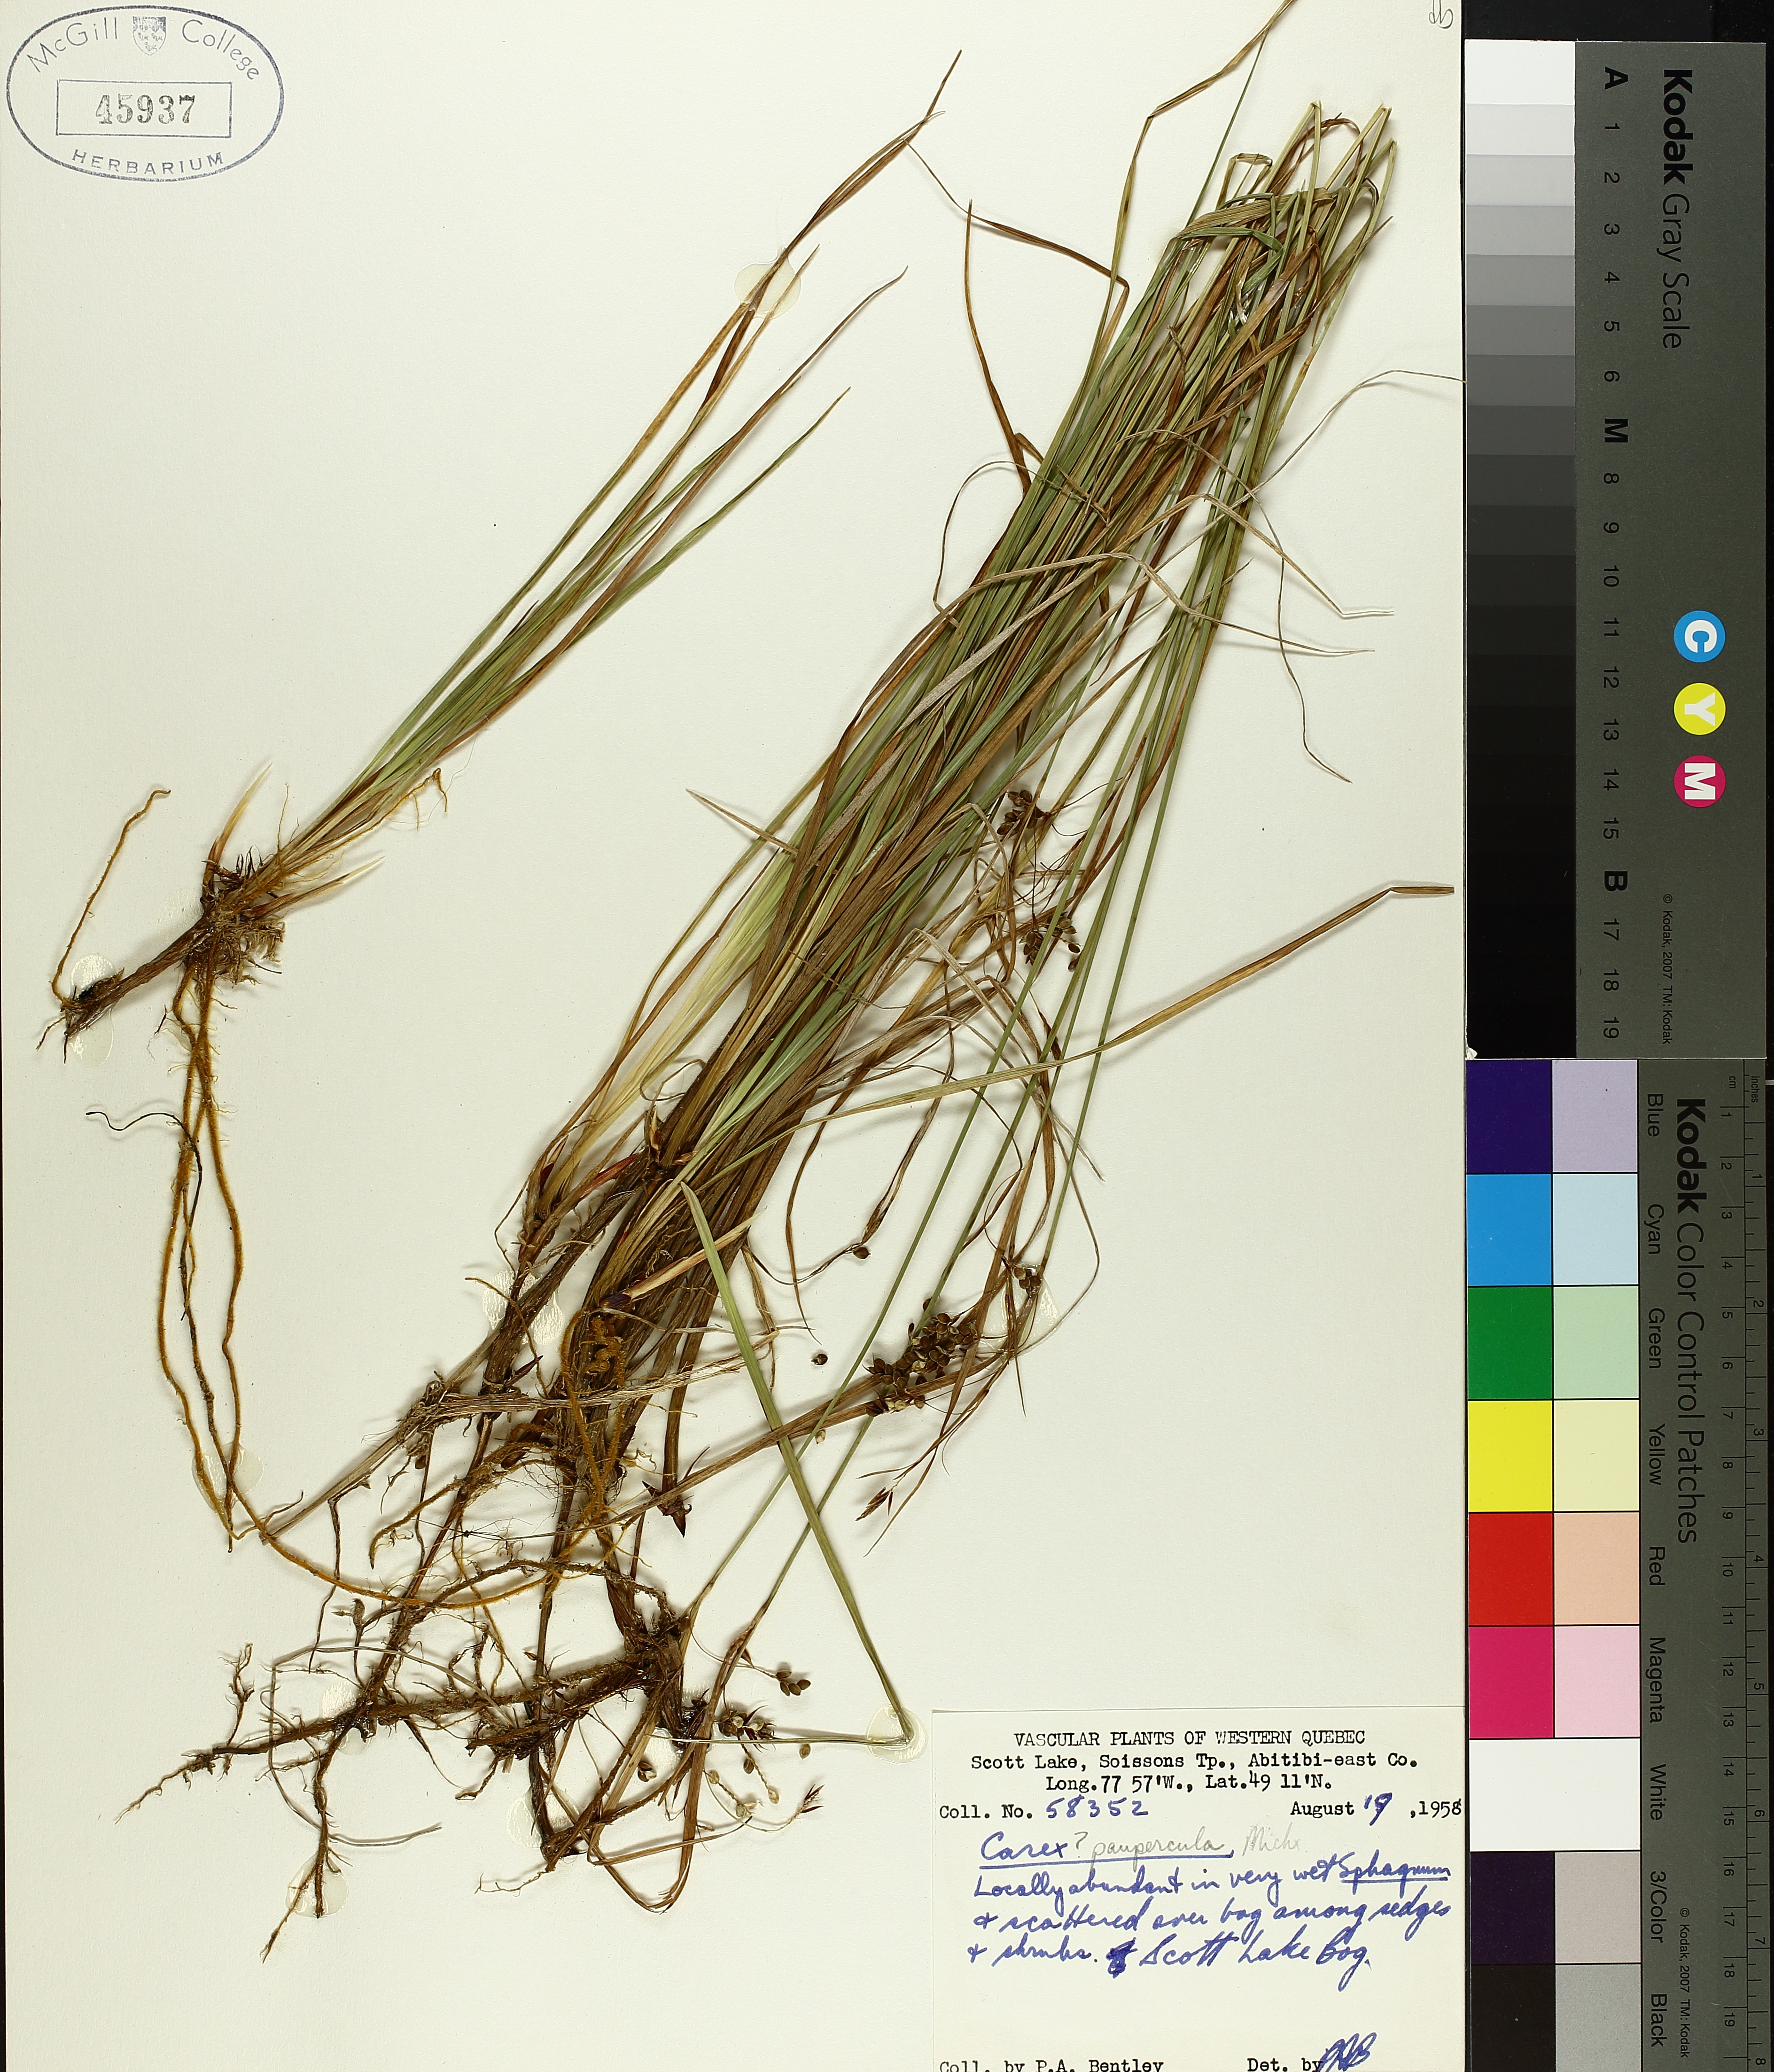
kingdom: Plantae
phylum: Tracheophyta
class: Liliopsida
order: Poales
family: Cyperaceae
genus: Carex
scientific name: Carex magellanica
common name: Bog sedge
